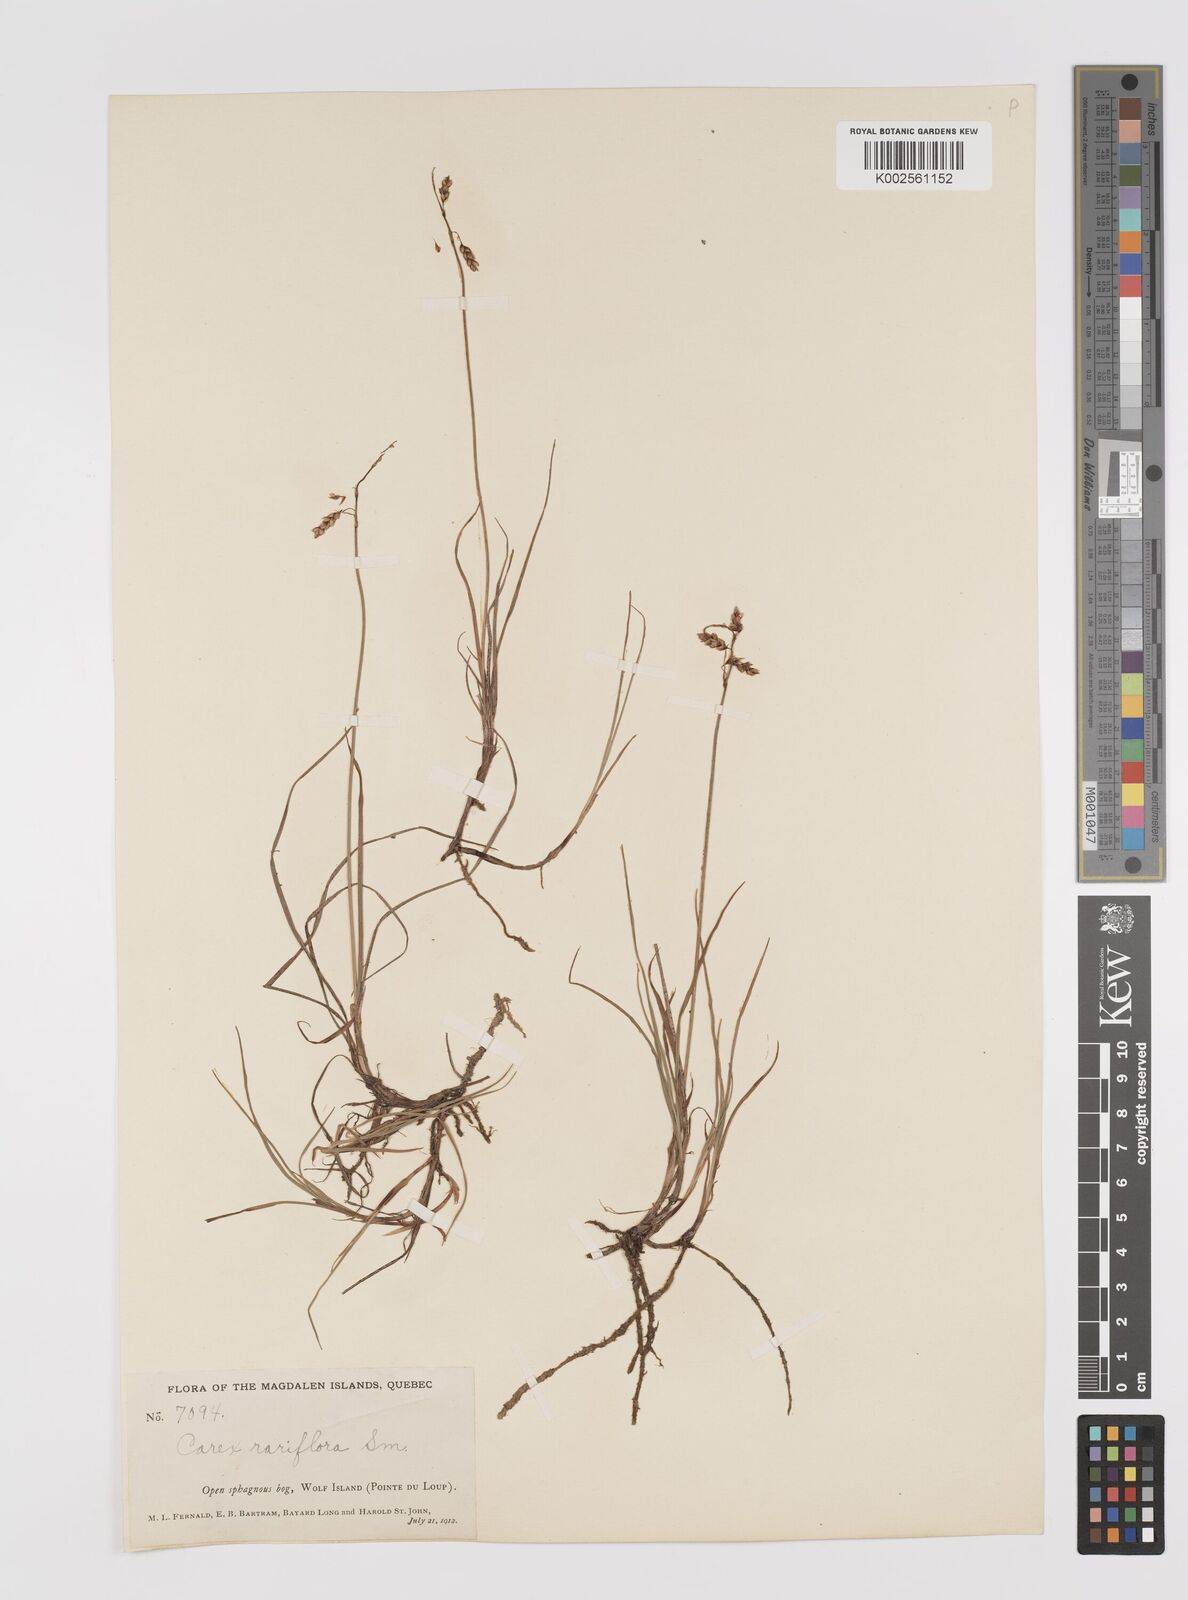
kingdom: Plantae
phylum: Tracheophyta
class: Liliopsida
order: Poales
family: Cyperaceae
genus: Carex
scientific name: Carex rariflora
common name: Loose-flowered alpine sedge
